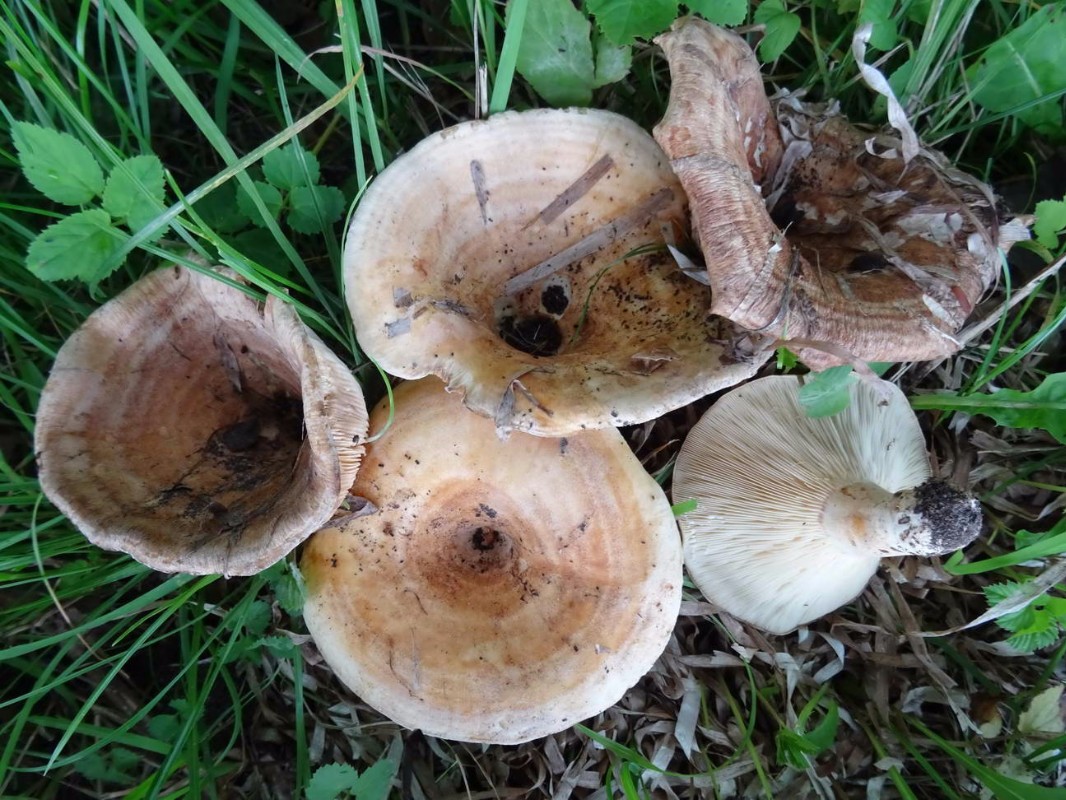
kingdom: Fungi
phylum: Basidiomycota
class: Agaricomycetes
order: Russulales
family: Russulaceae
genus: Lactarius
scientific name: Lactarius evosmus
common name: bæltet mælkehat
